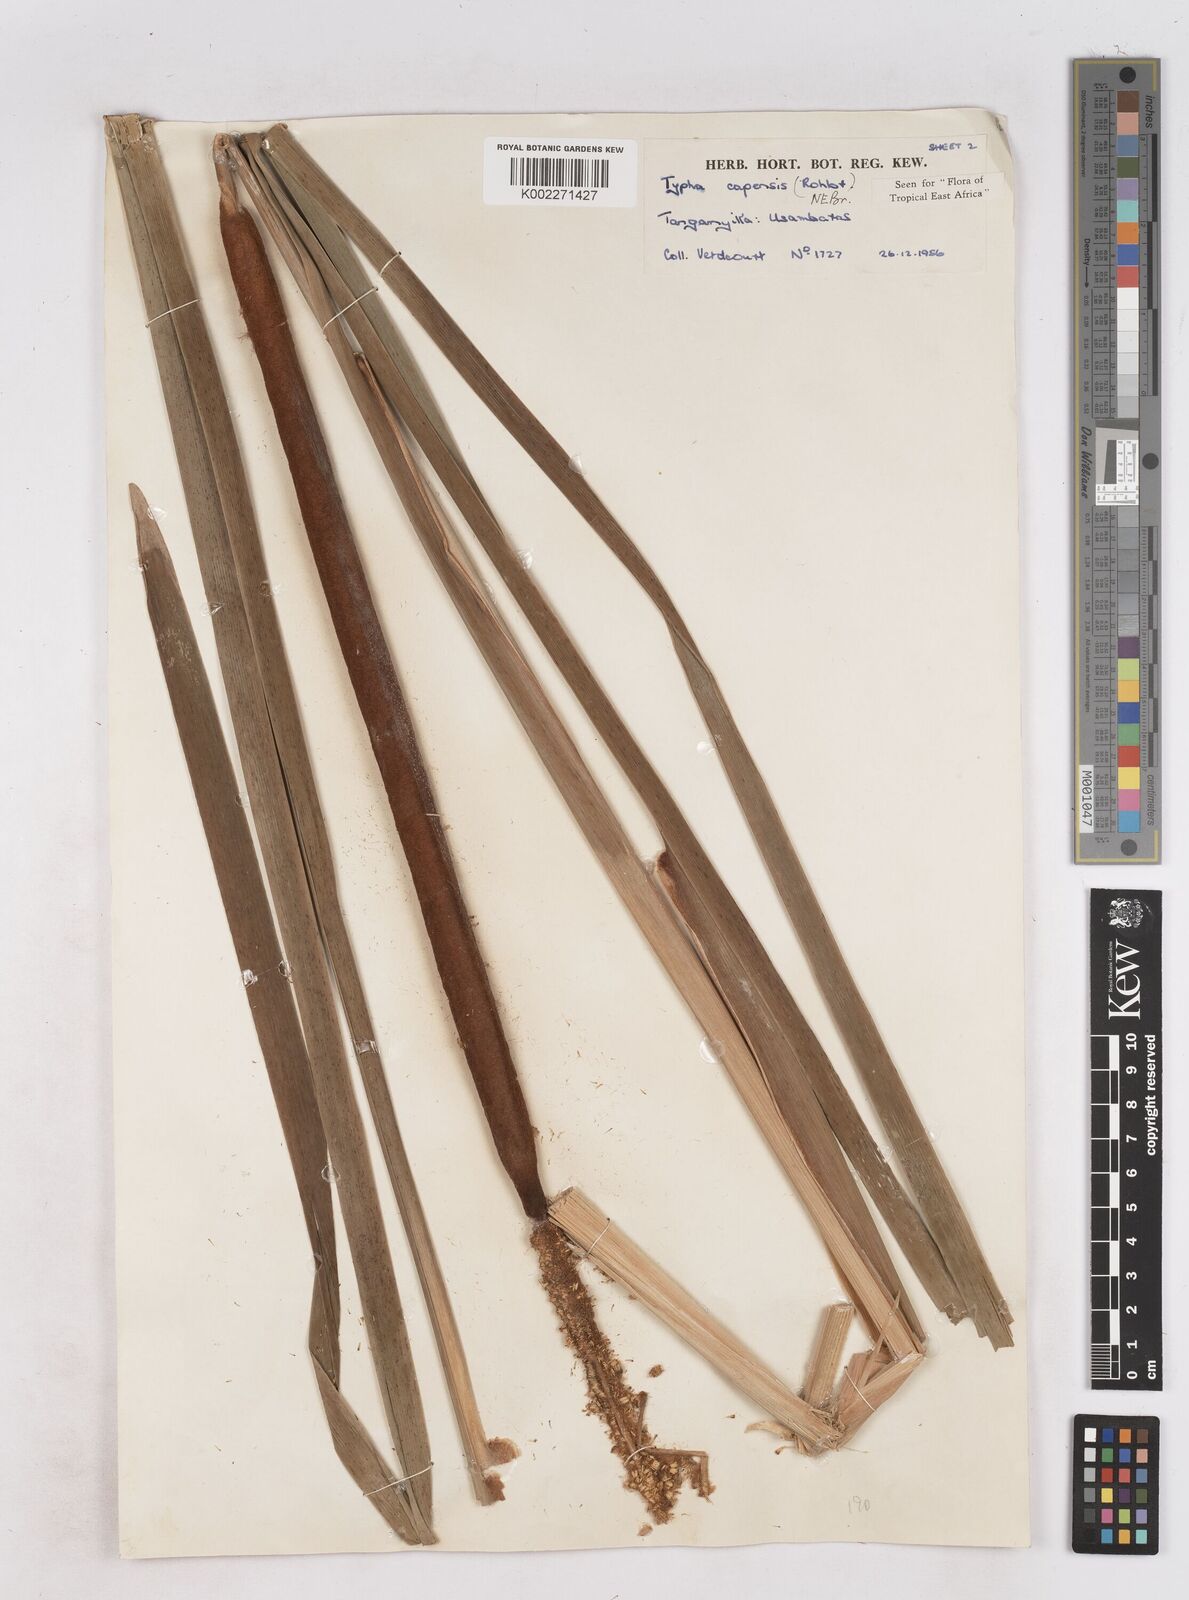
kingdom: Plantae
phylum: Tracheophyta
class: Liliopsida
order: Poales
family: Typhaceae
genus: Typha
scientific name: Typha capensis
